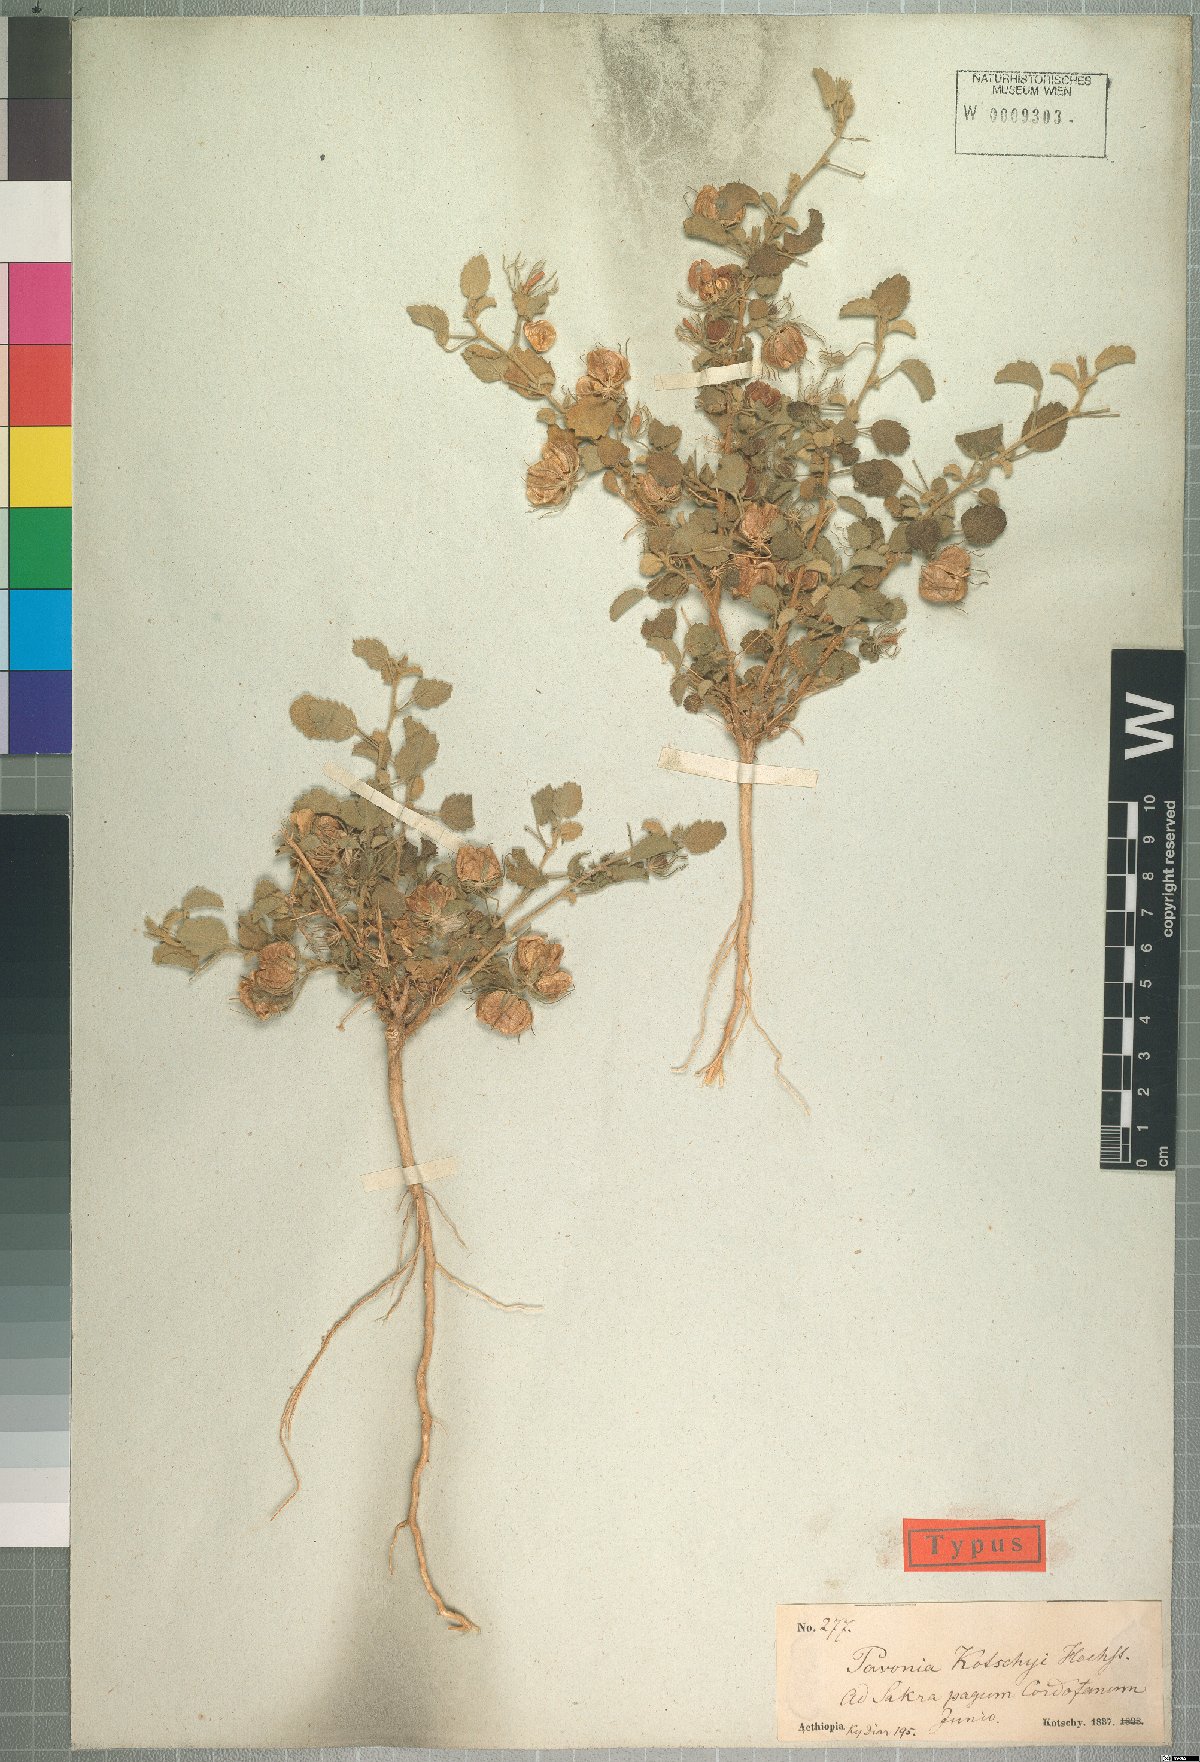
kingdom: Plantae
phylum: Tracheophyta
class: Magnoliopsida
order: Malvales
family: Malvaceae
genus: Pavonia
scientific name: Pavonia kotschyi
